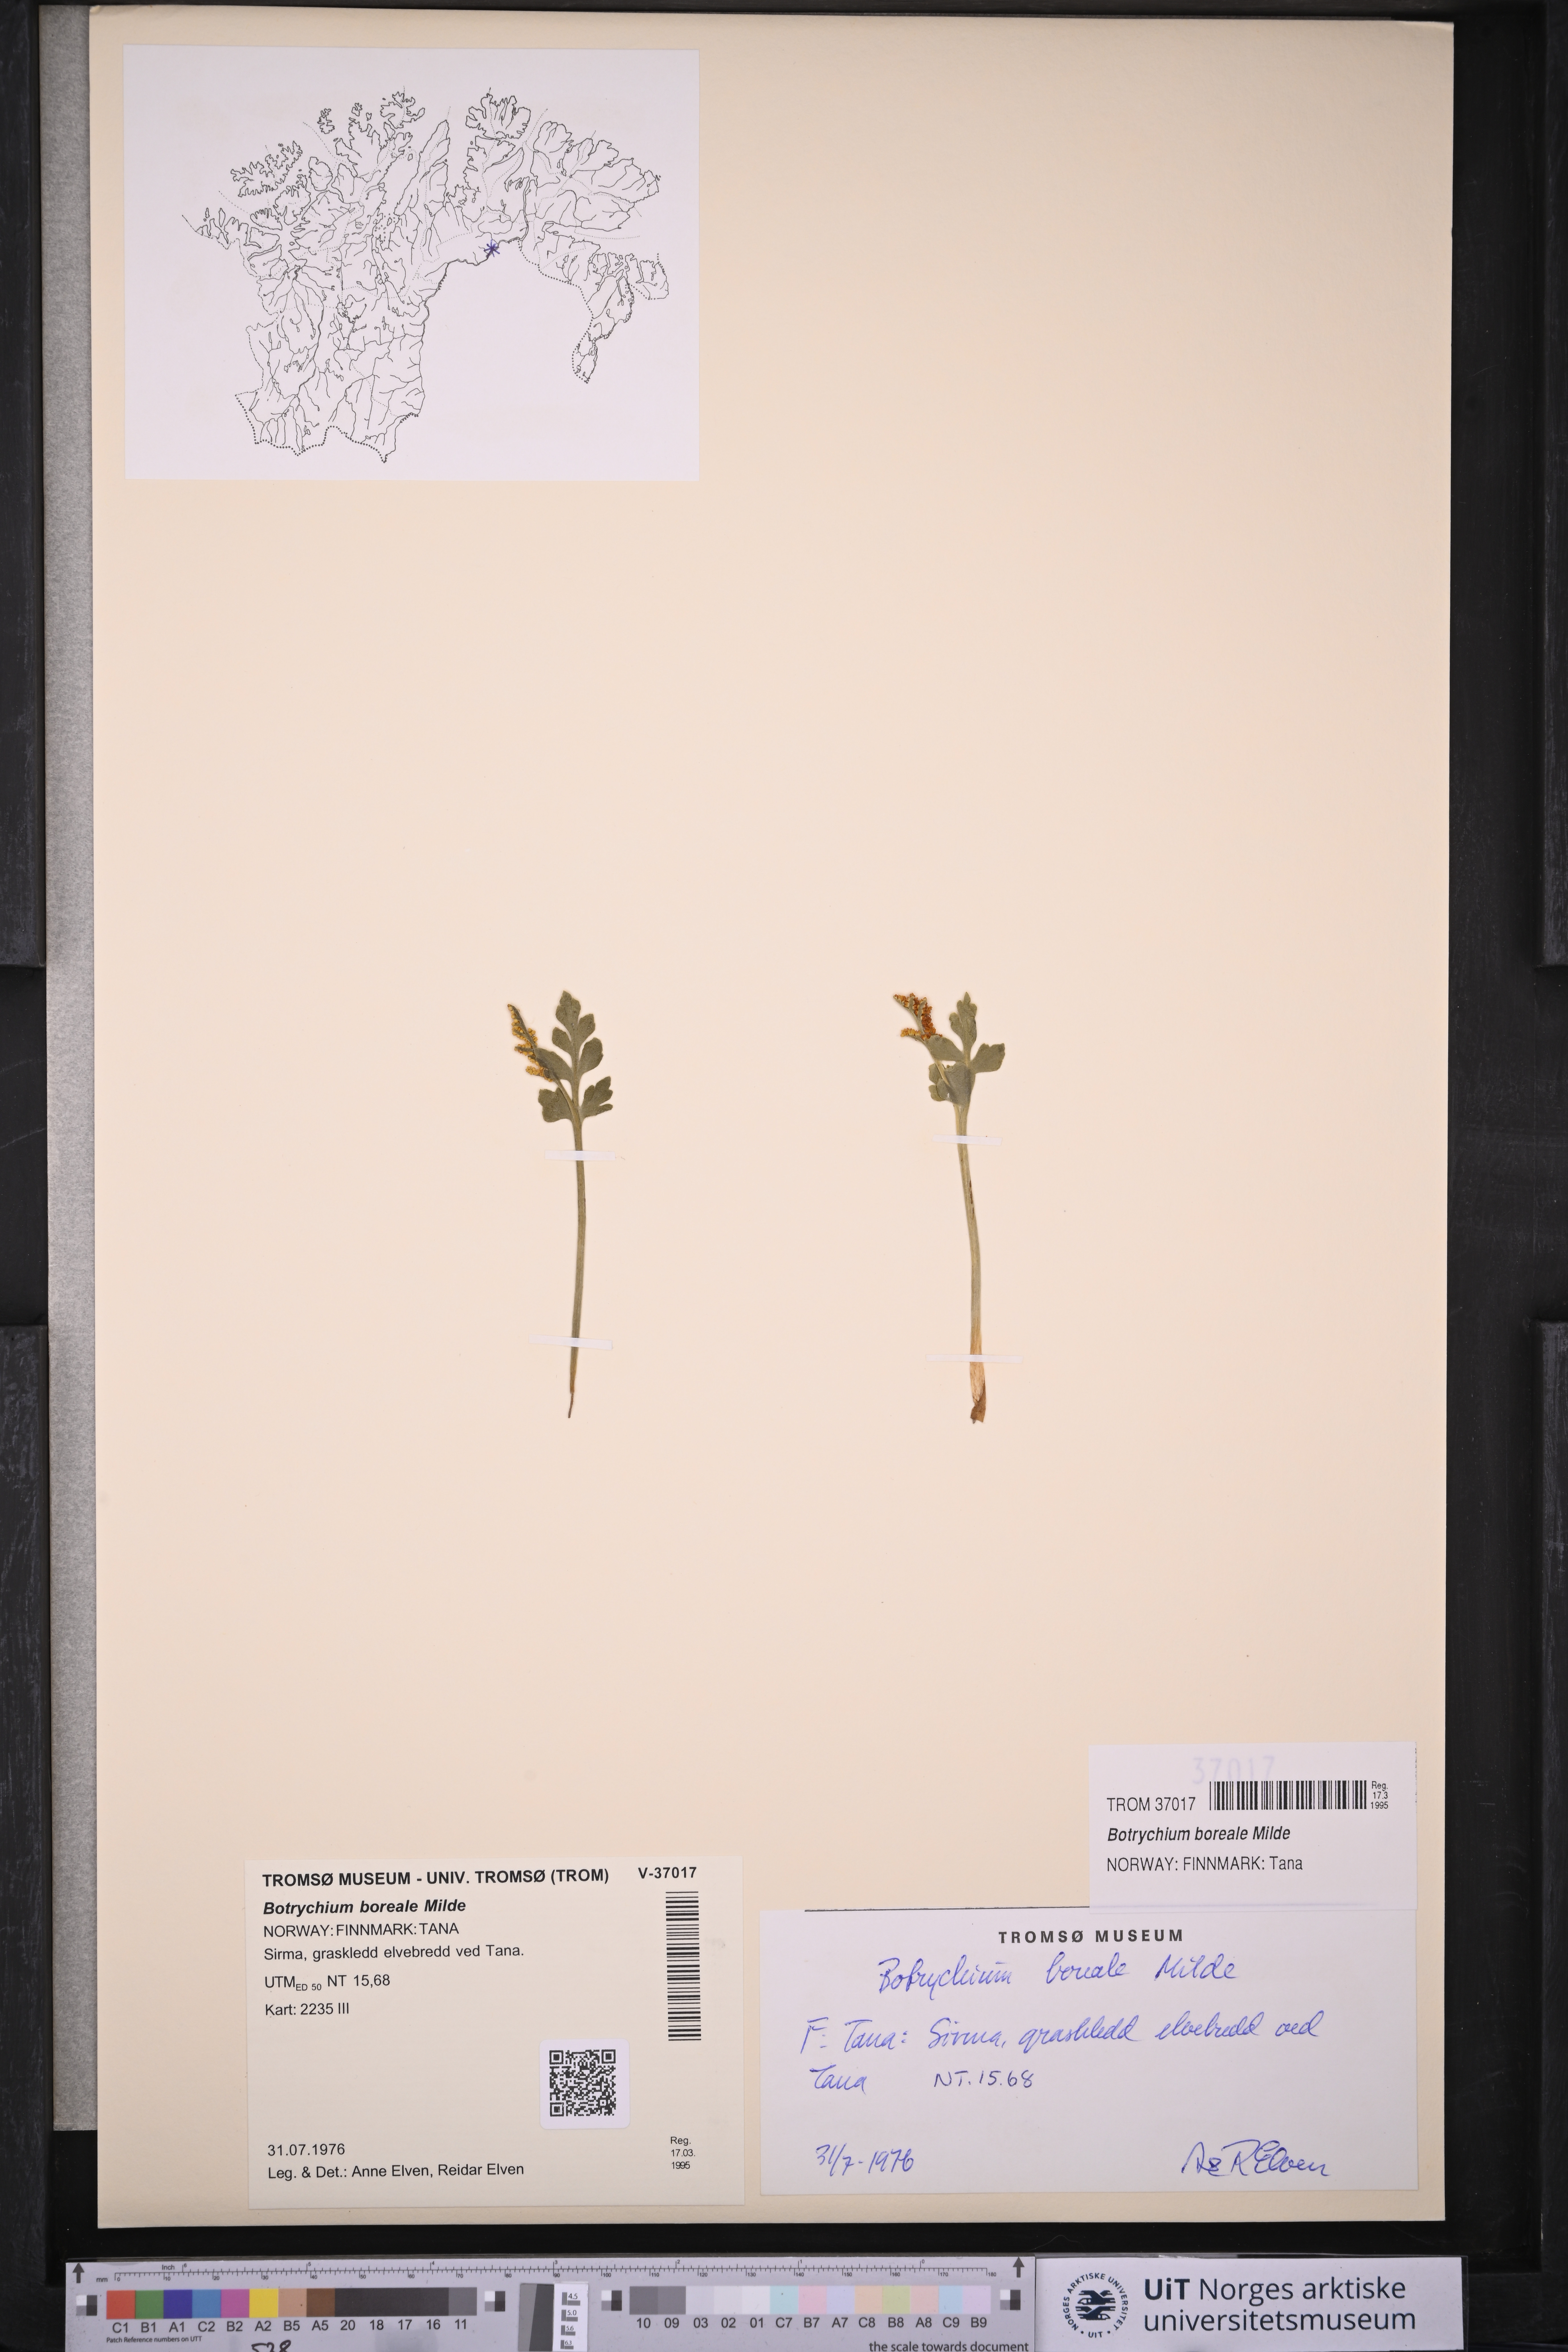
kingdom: Plantae
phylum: Tracheophyta
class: Polypodiopsida
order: Ophioglossales
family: Ophioglossaceae
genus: Botrychium
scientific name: Botrychium boreale
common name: Boreal moonwort
